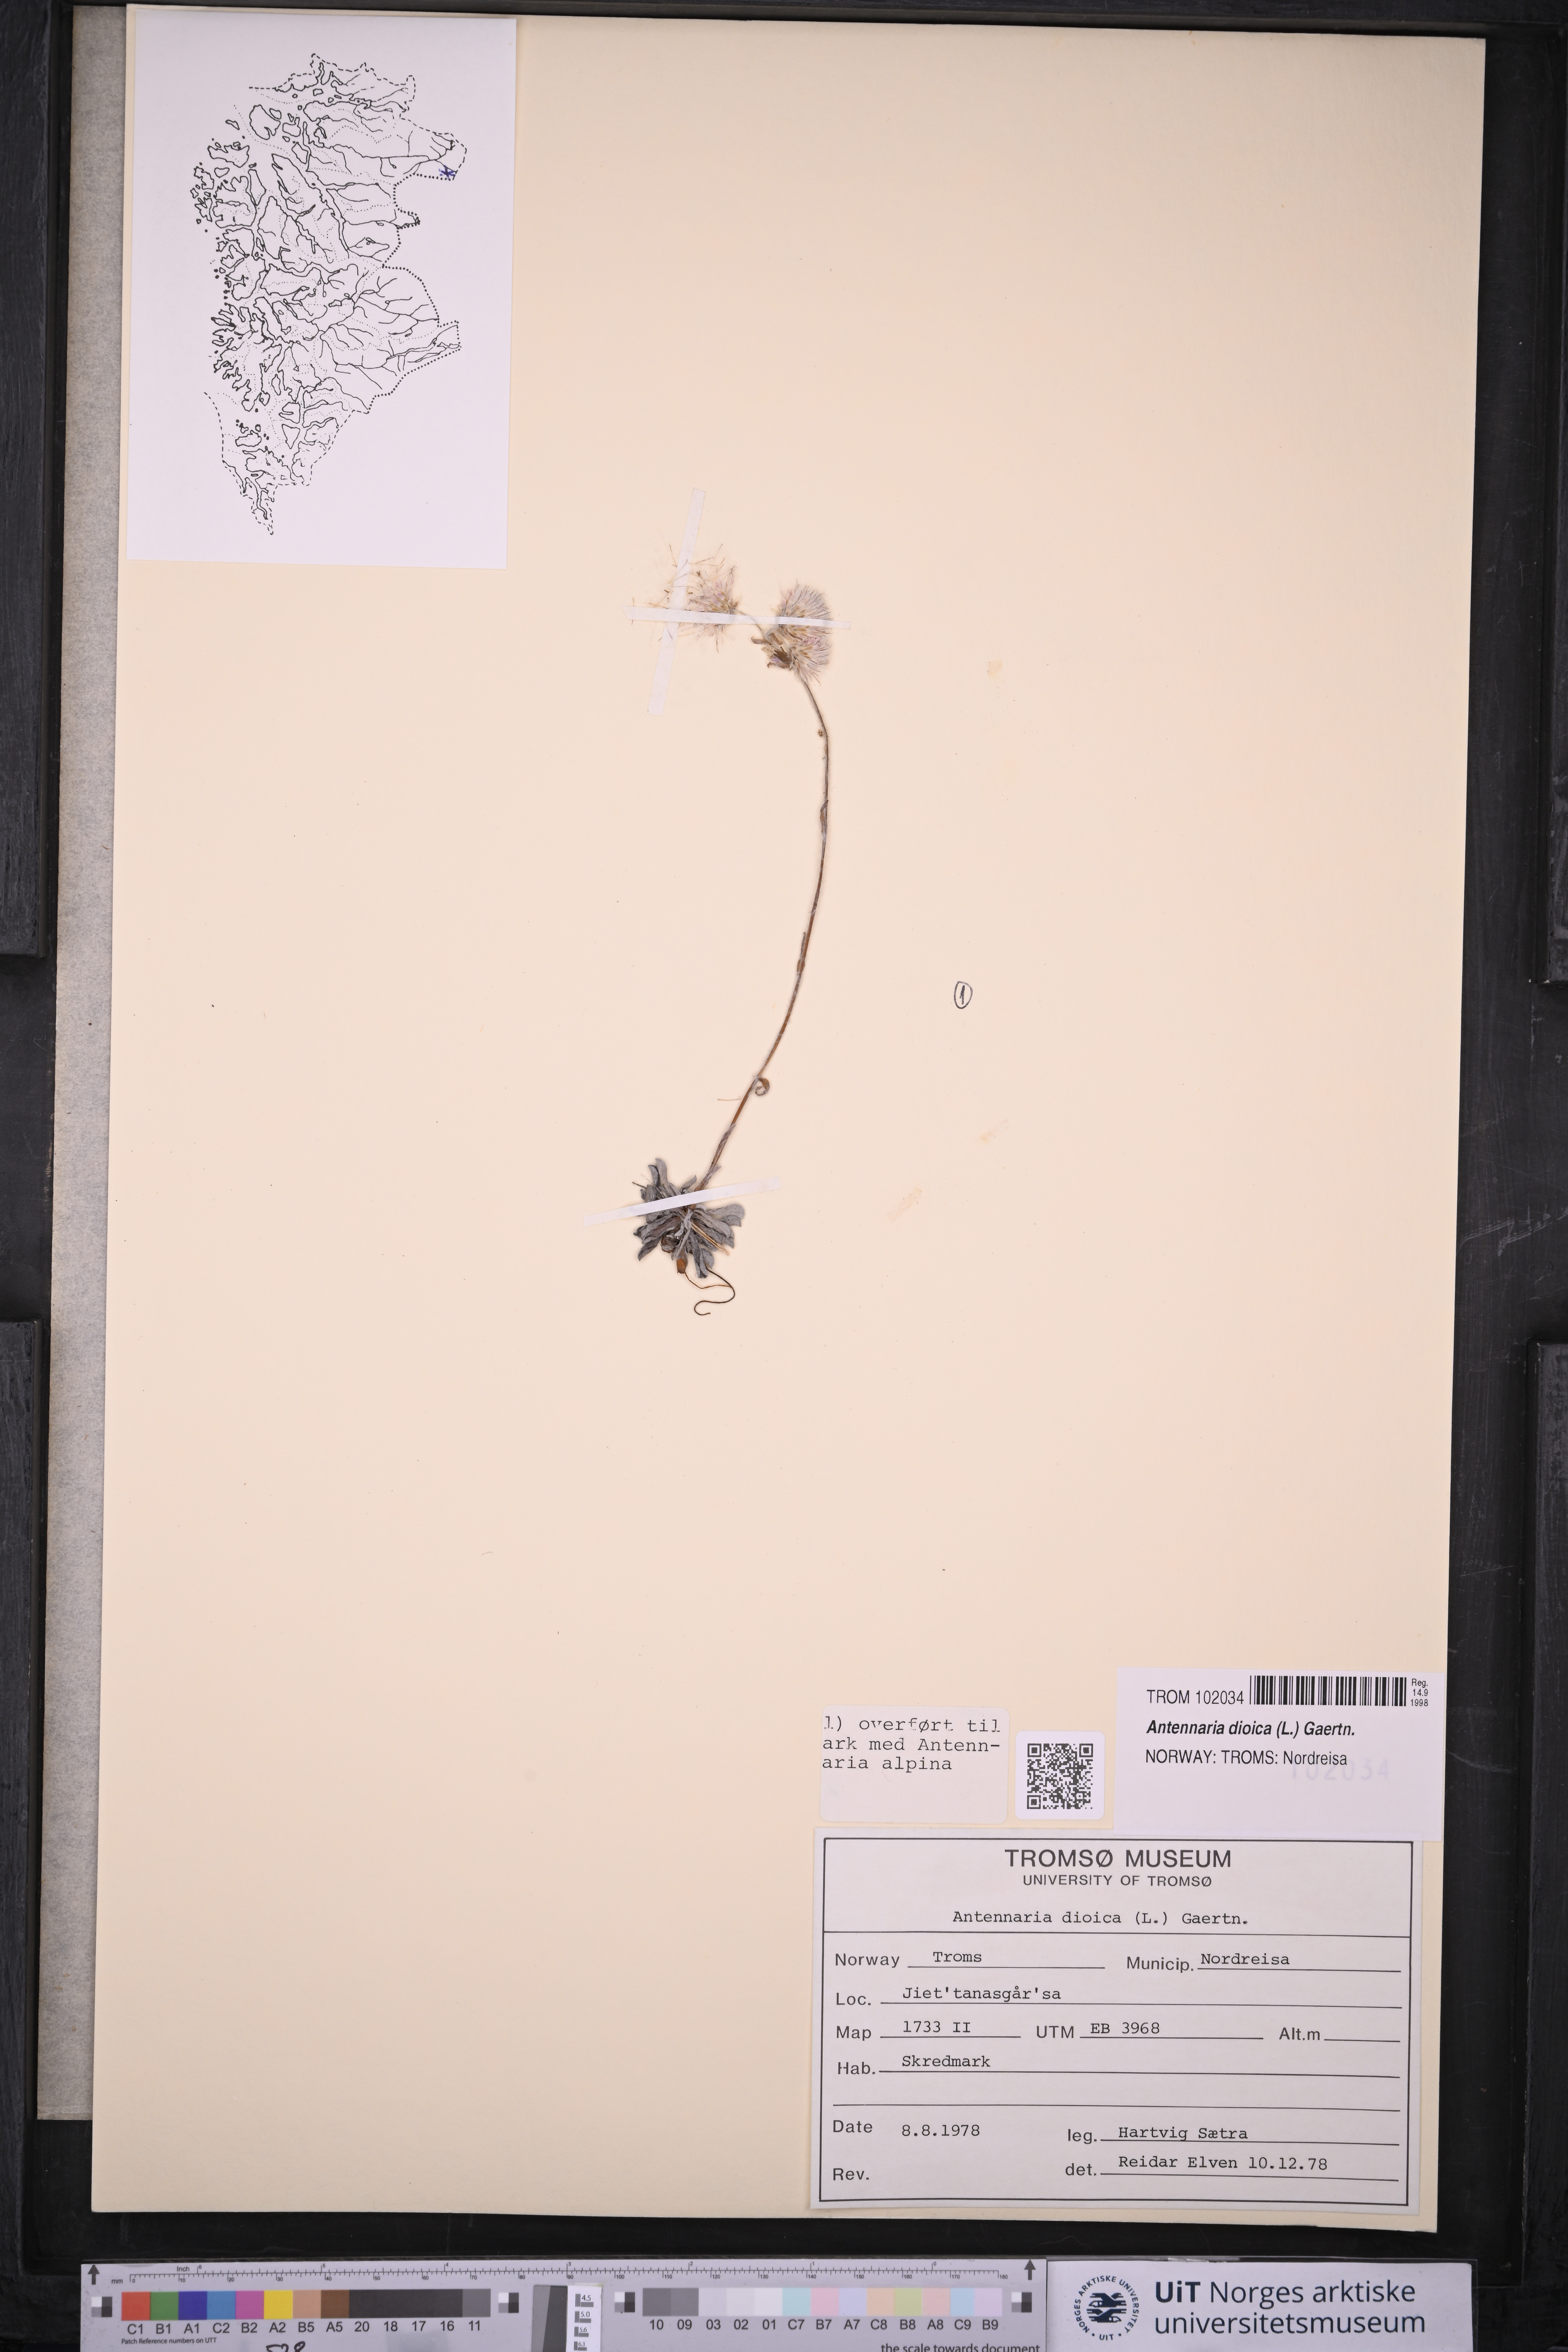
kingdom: Plantae
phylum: Tracheophyta
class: Magnoliopsida
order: Asterales
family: Asteraceae
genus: Antennaria
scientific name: Antennaria dioica
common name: Mountain everlasting
